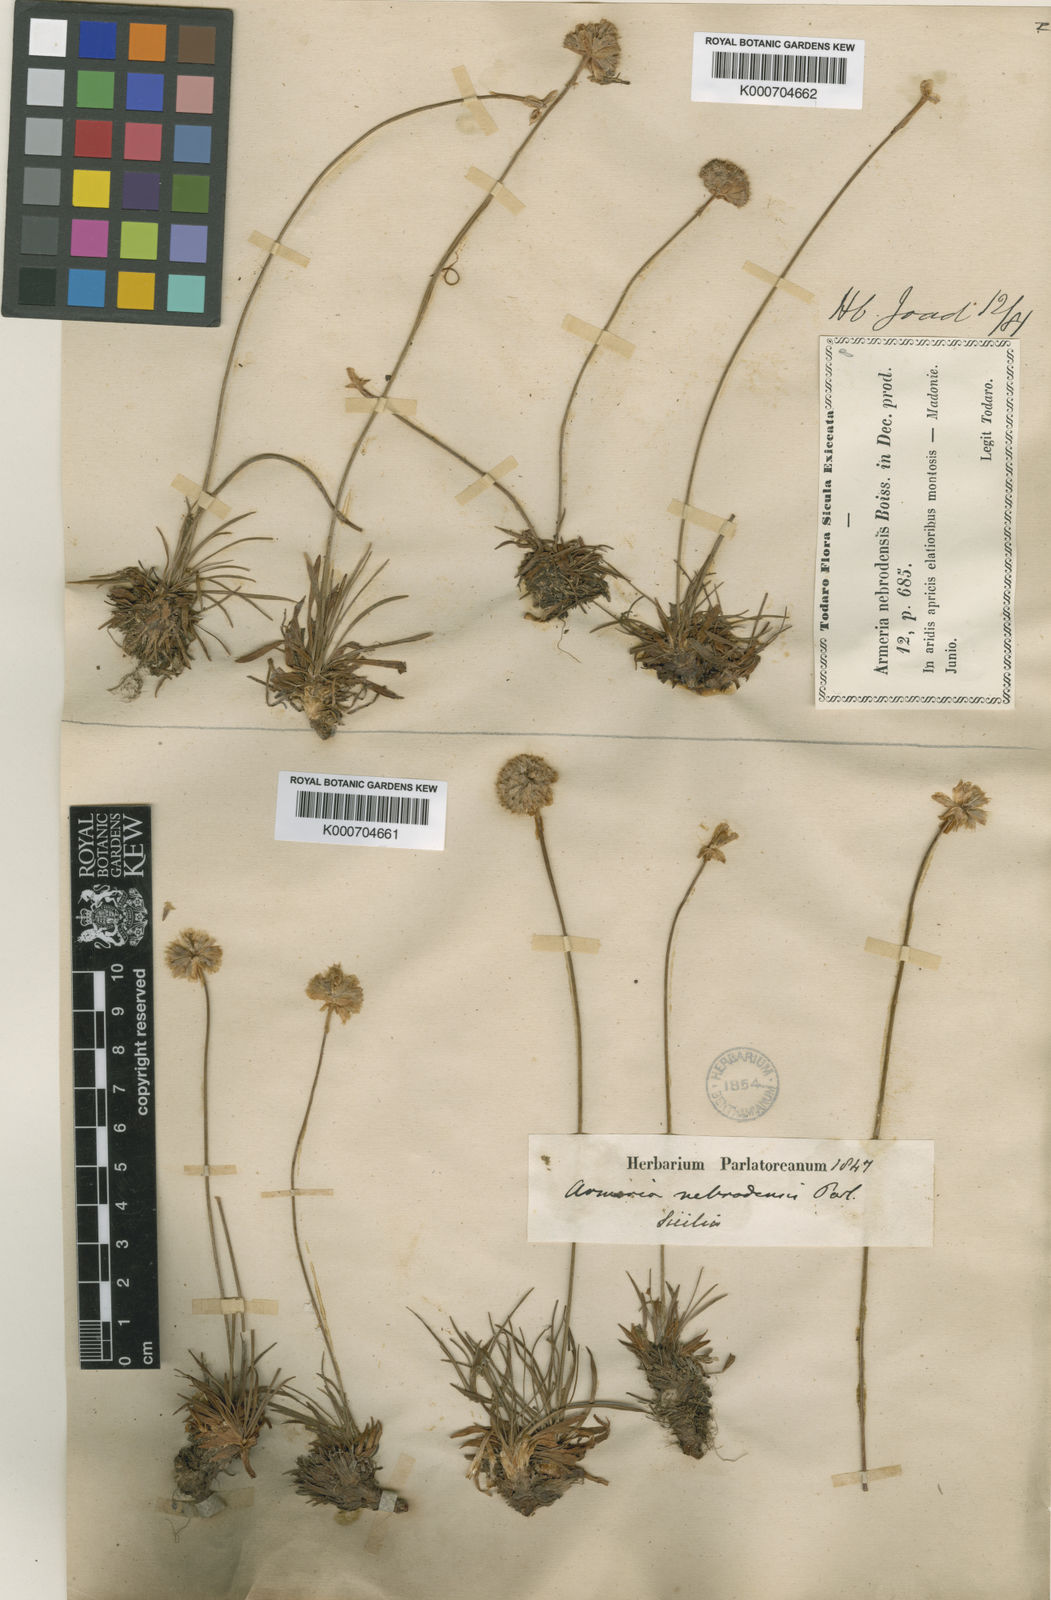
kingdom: Plantae
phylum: Tracheophyta
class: Magnoliopsida
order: Caryophyllales
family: Plumbaginaceae
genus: Armeria
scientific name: Armeria nebrodensis
